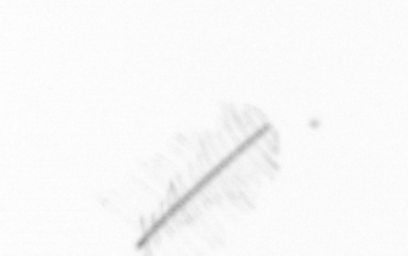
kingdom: Chromista
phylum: Ochrophyta
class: Bacillariophyceae
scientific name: Bacillariophyceae
